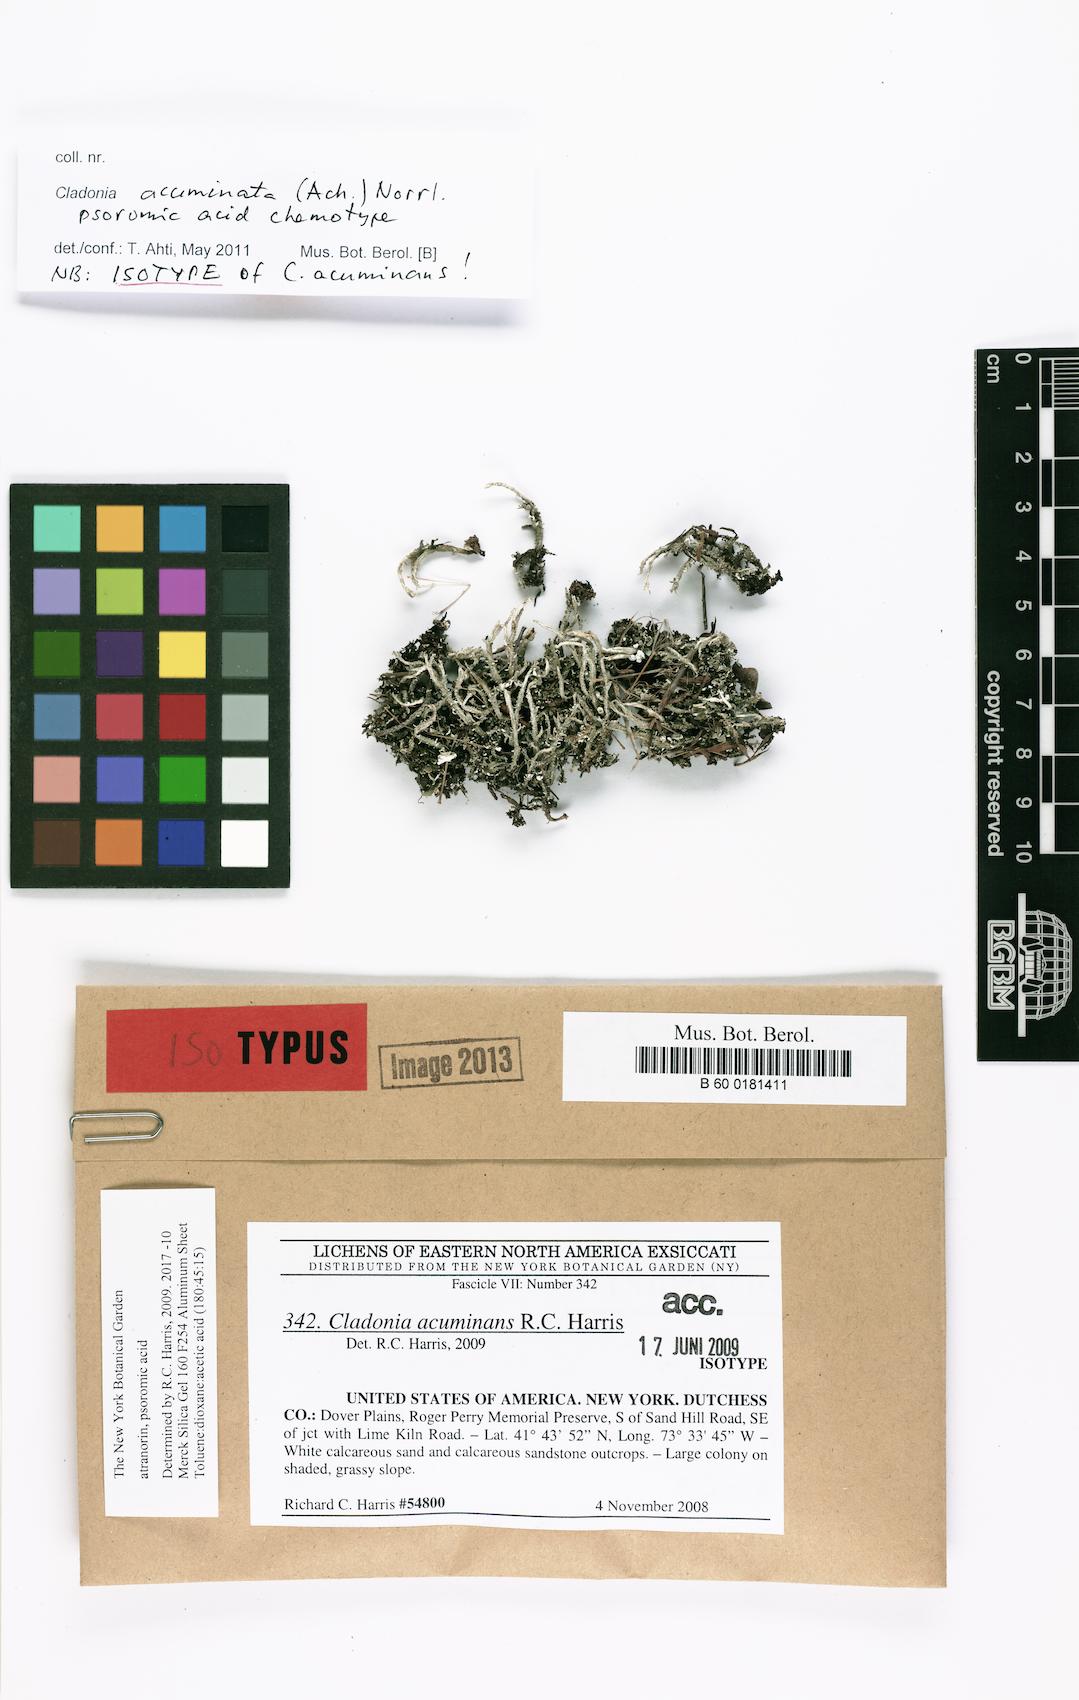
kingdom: Fungi
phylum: Ascomycota
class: Lecanoromycetes
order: Lecanorales
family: Cladoniaceae
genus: Cladonia
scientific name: Cladonia acuminans
